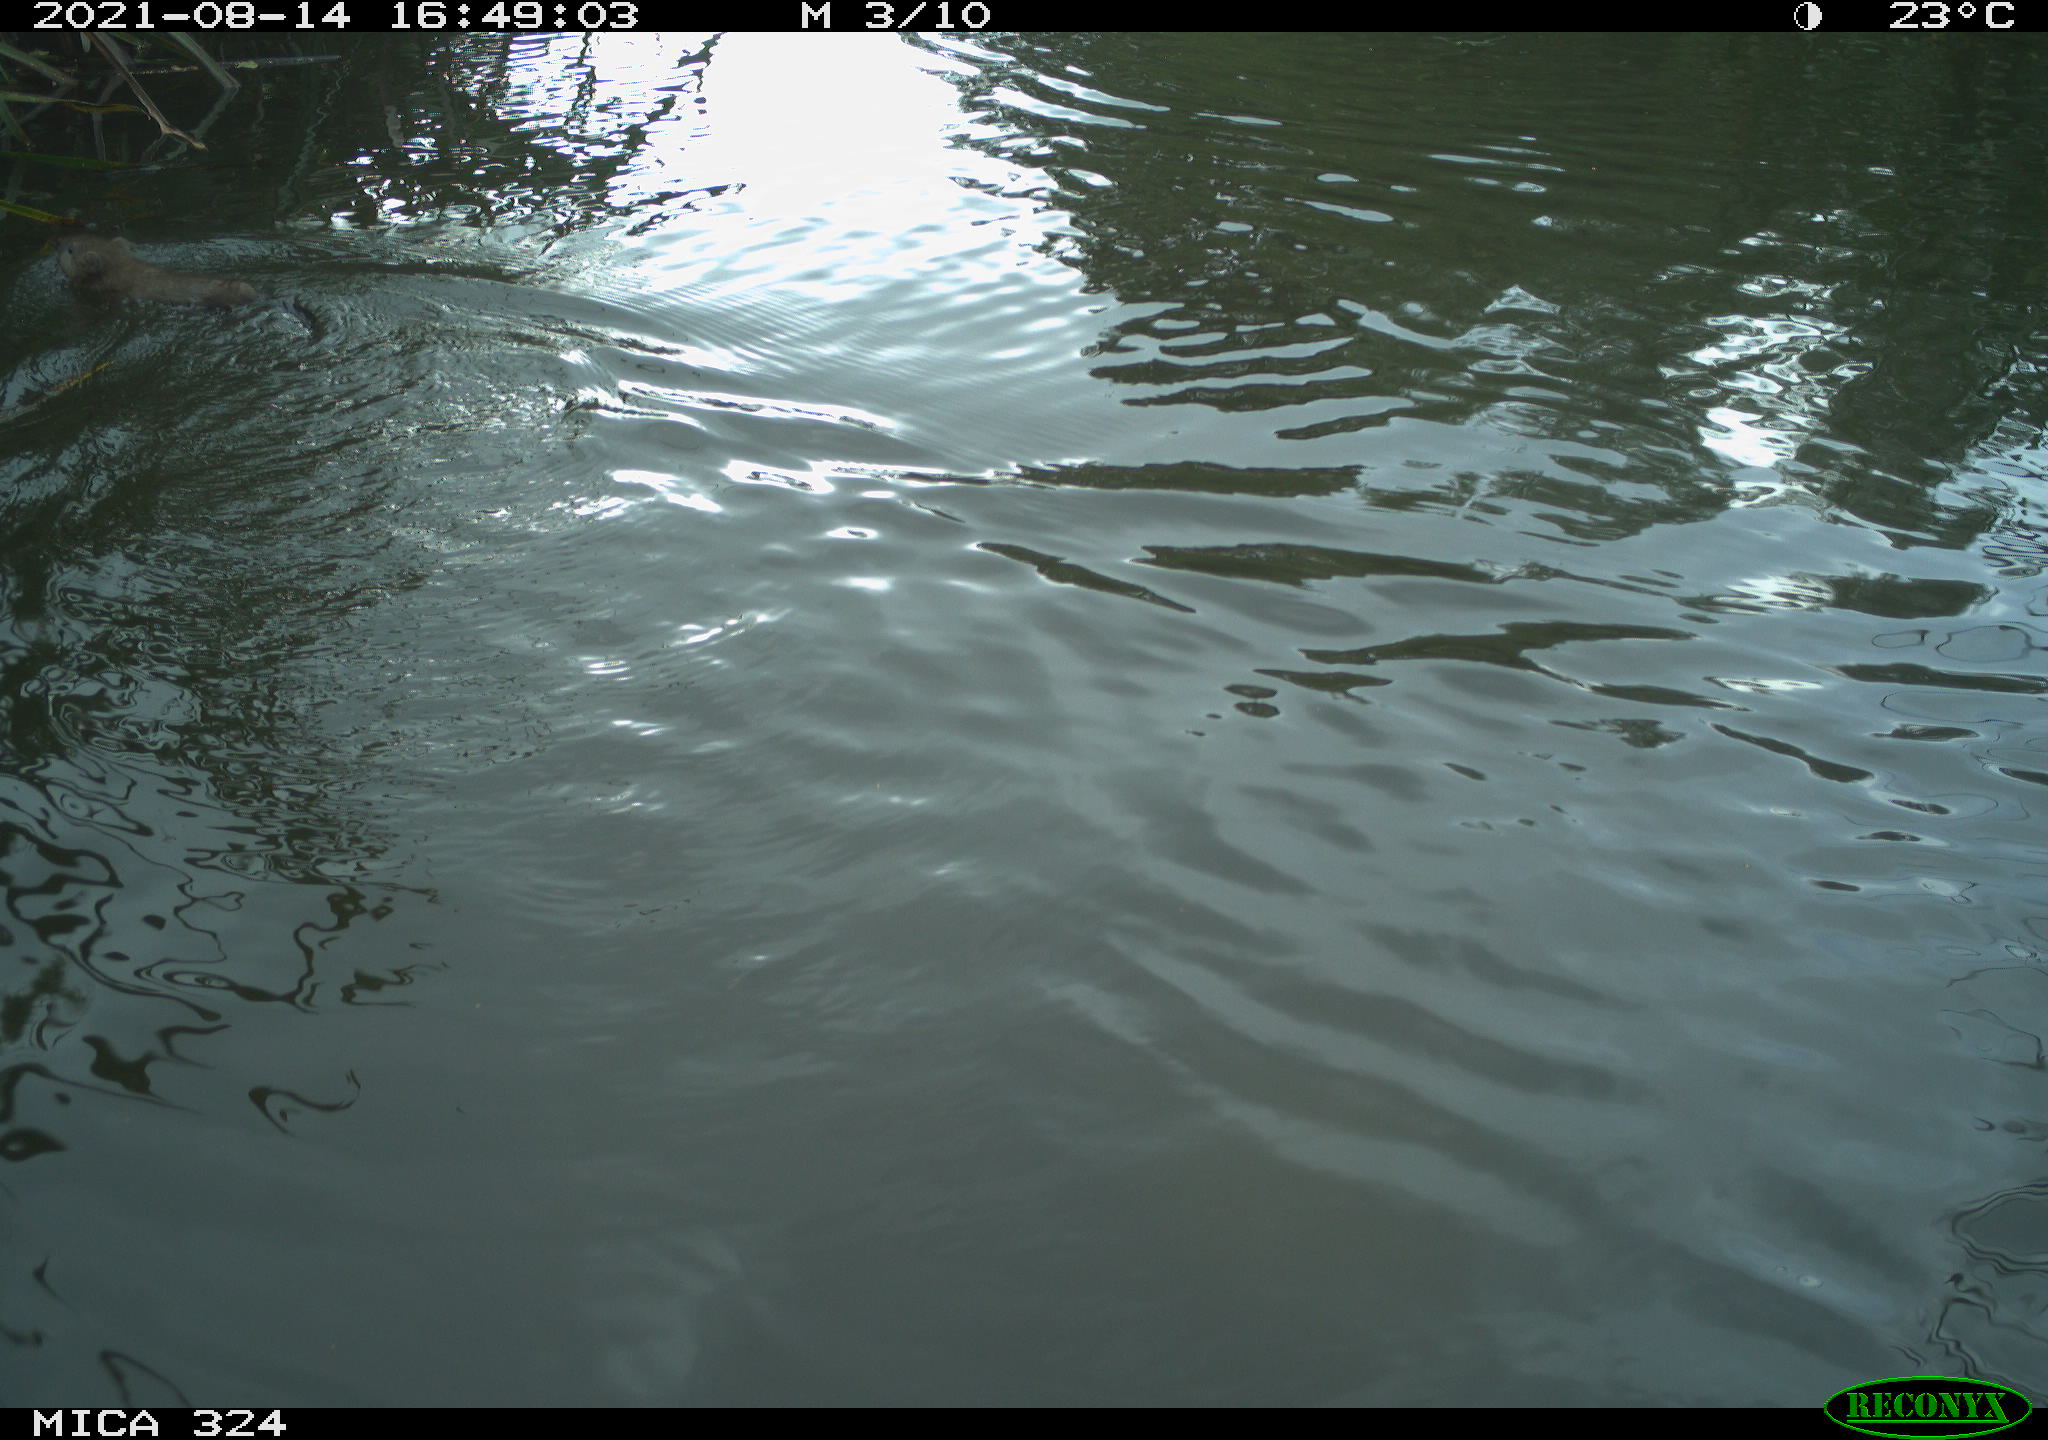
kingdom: Animalia
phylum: Chordata
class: Mammalia
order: Rodentia
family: Cricetidae
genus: Ondatra
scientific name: Ondatra zibethicus
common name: Muskrat
